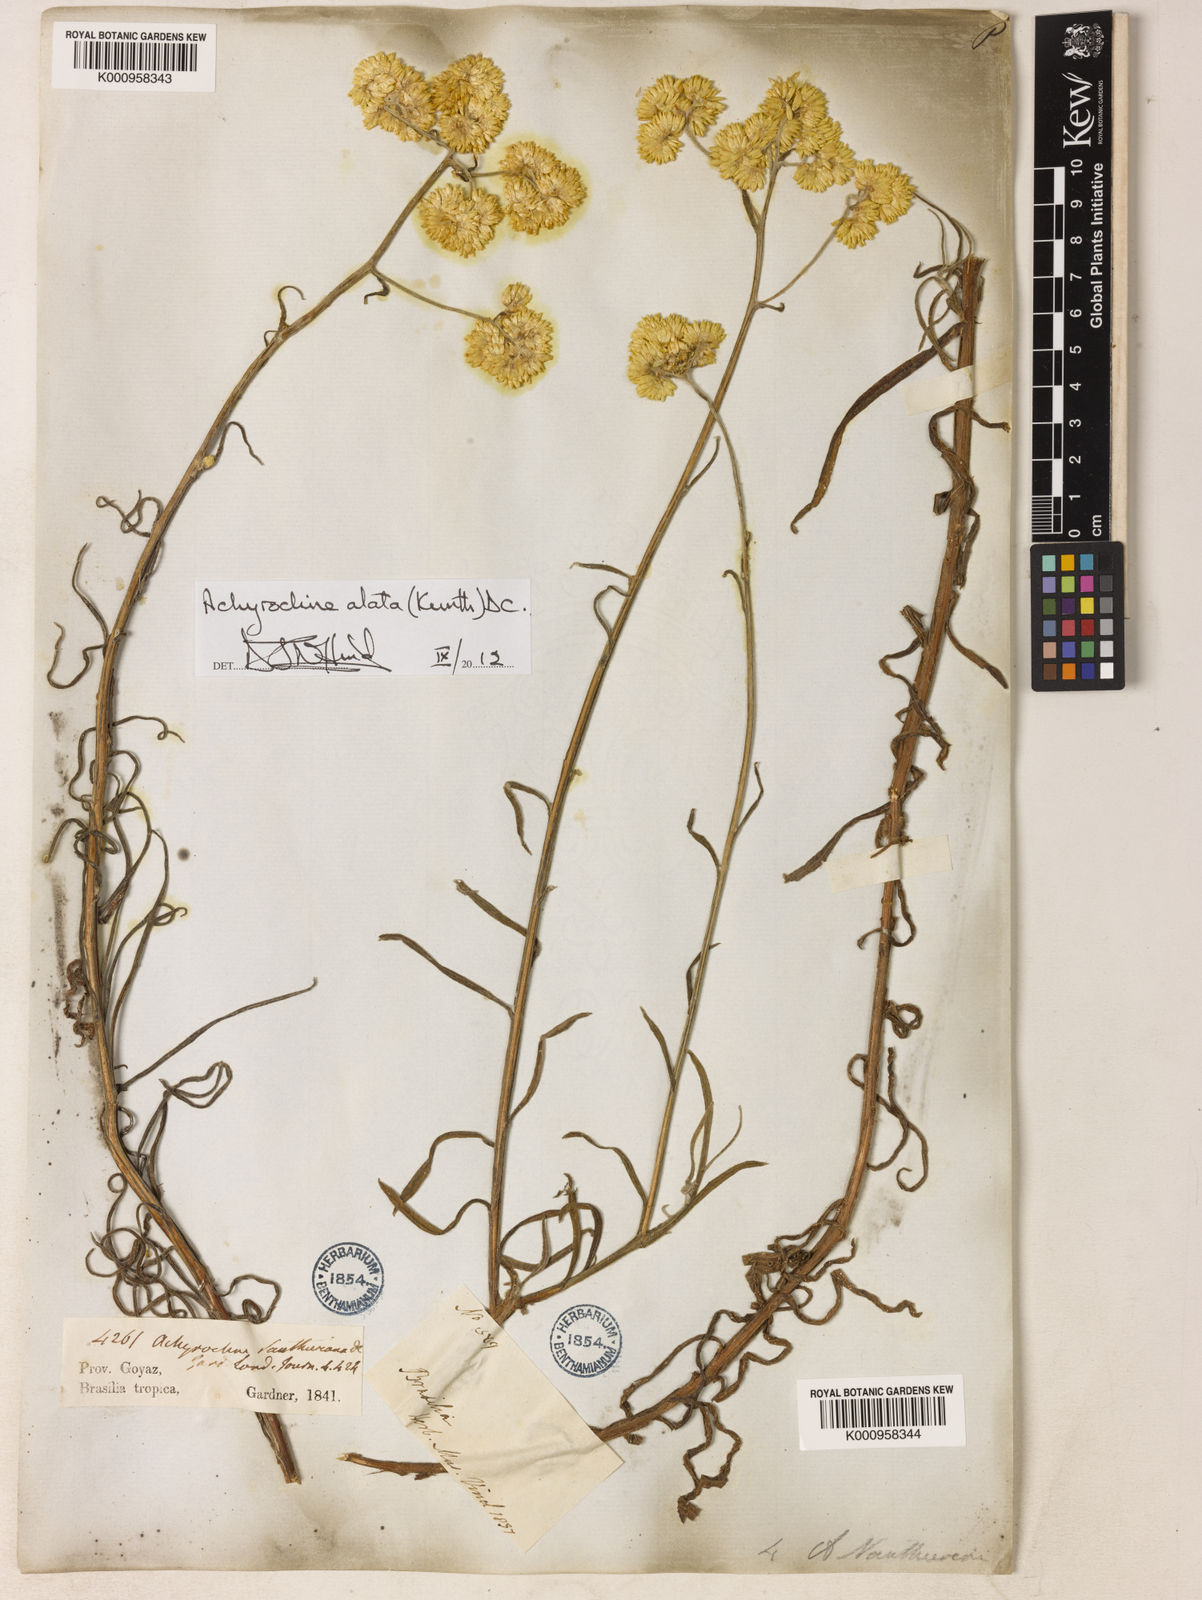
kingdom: Plantae
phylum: Tracheophyta
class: Magnoliopsida
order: Asterales
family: Asteraceae
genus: Achyrocline
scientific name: Achyrocline vauthieriana
